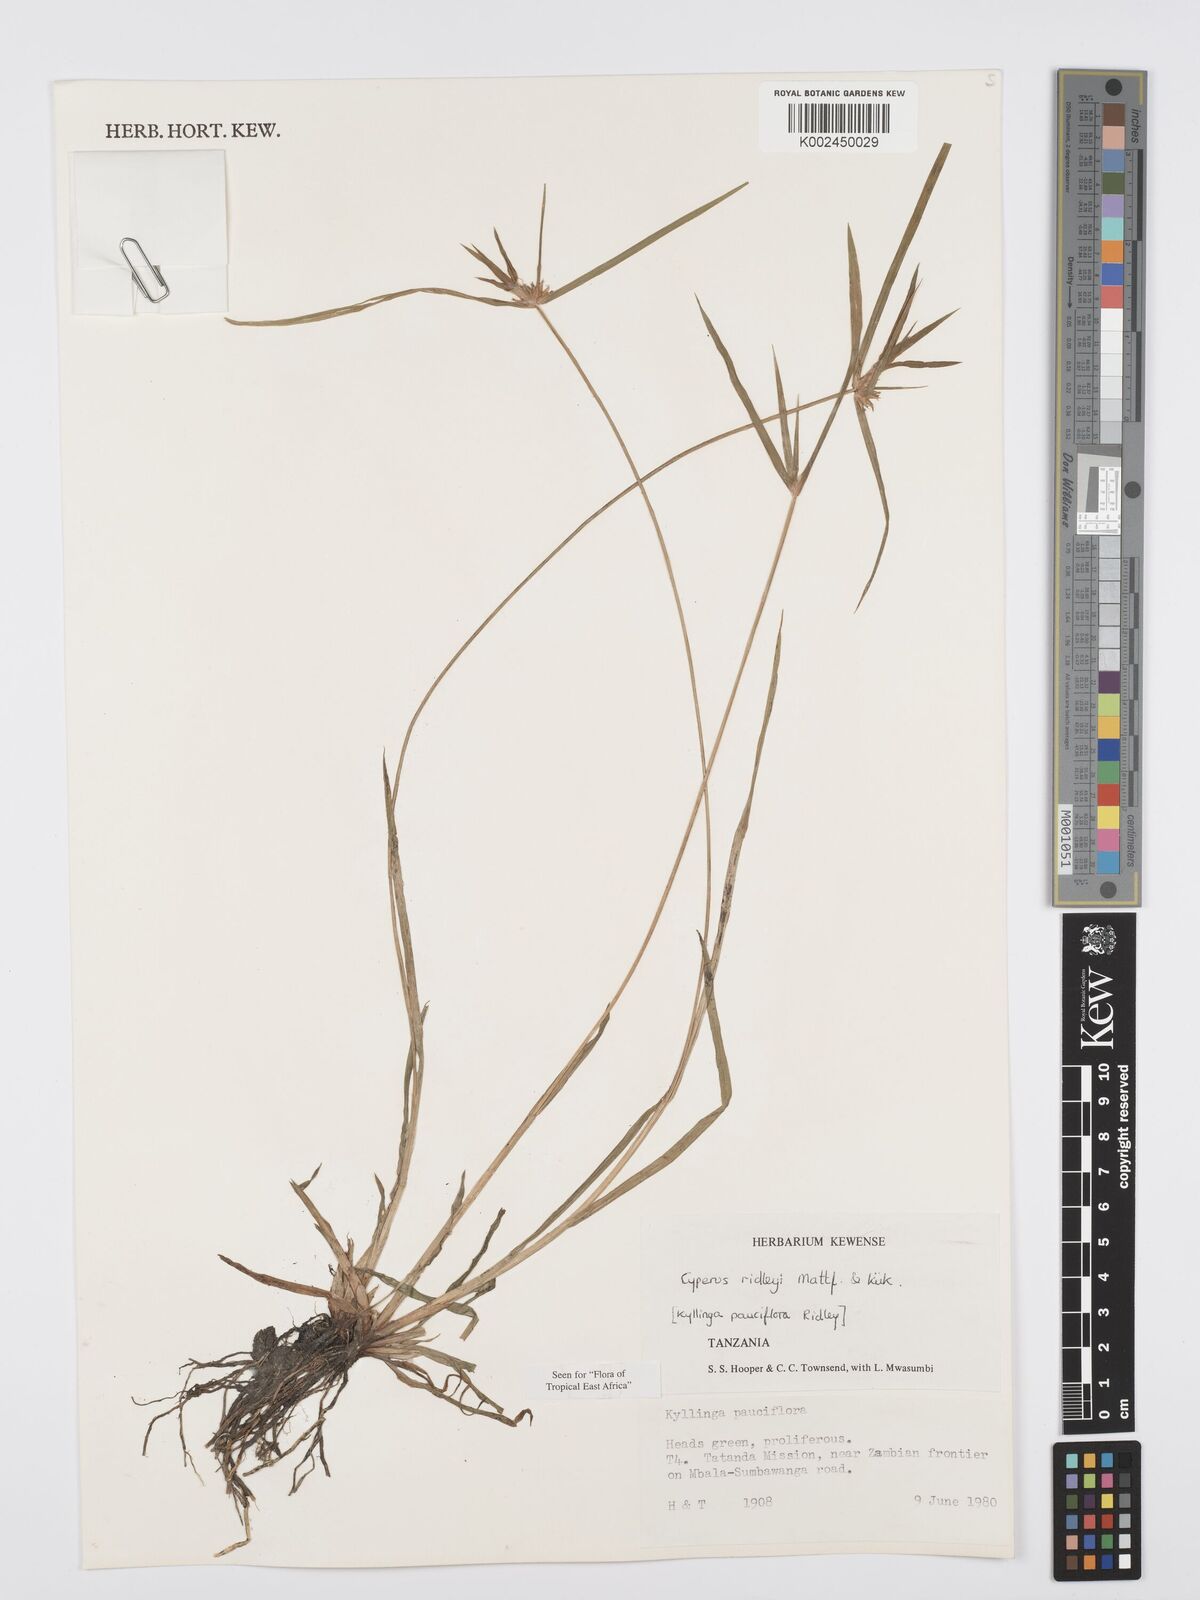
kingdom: Plantae
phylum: Tracheophyta
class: Liliopsida
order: Poales
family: Cyperaceae
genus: Cyperus
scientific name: Cyperus
